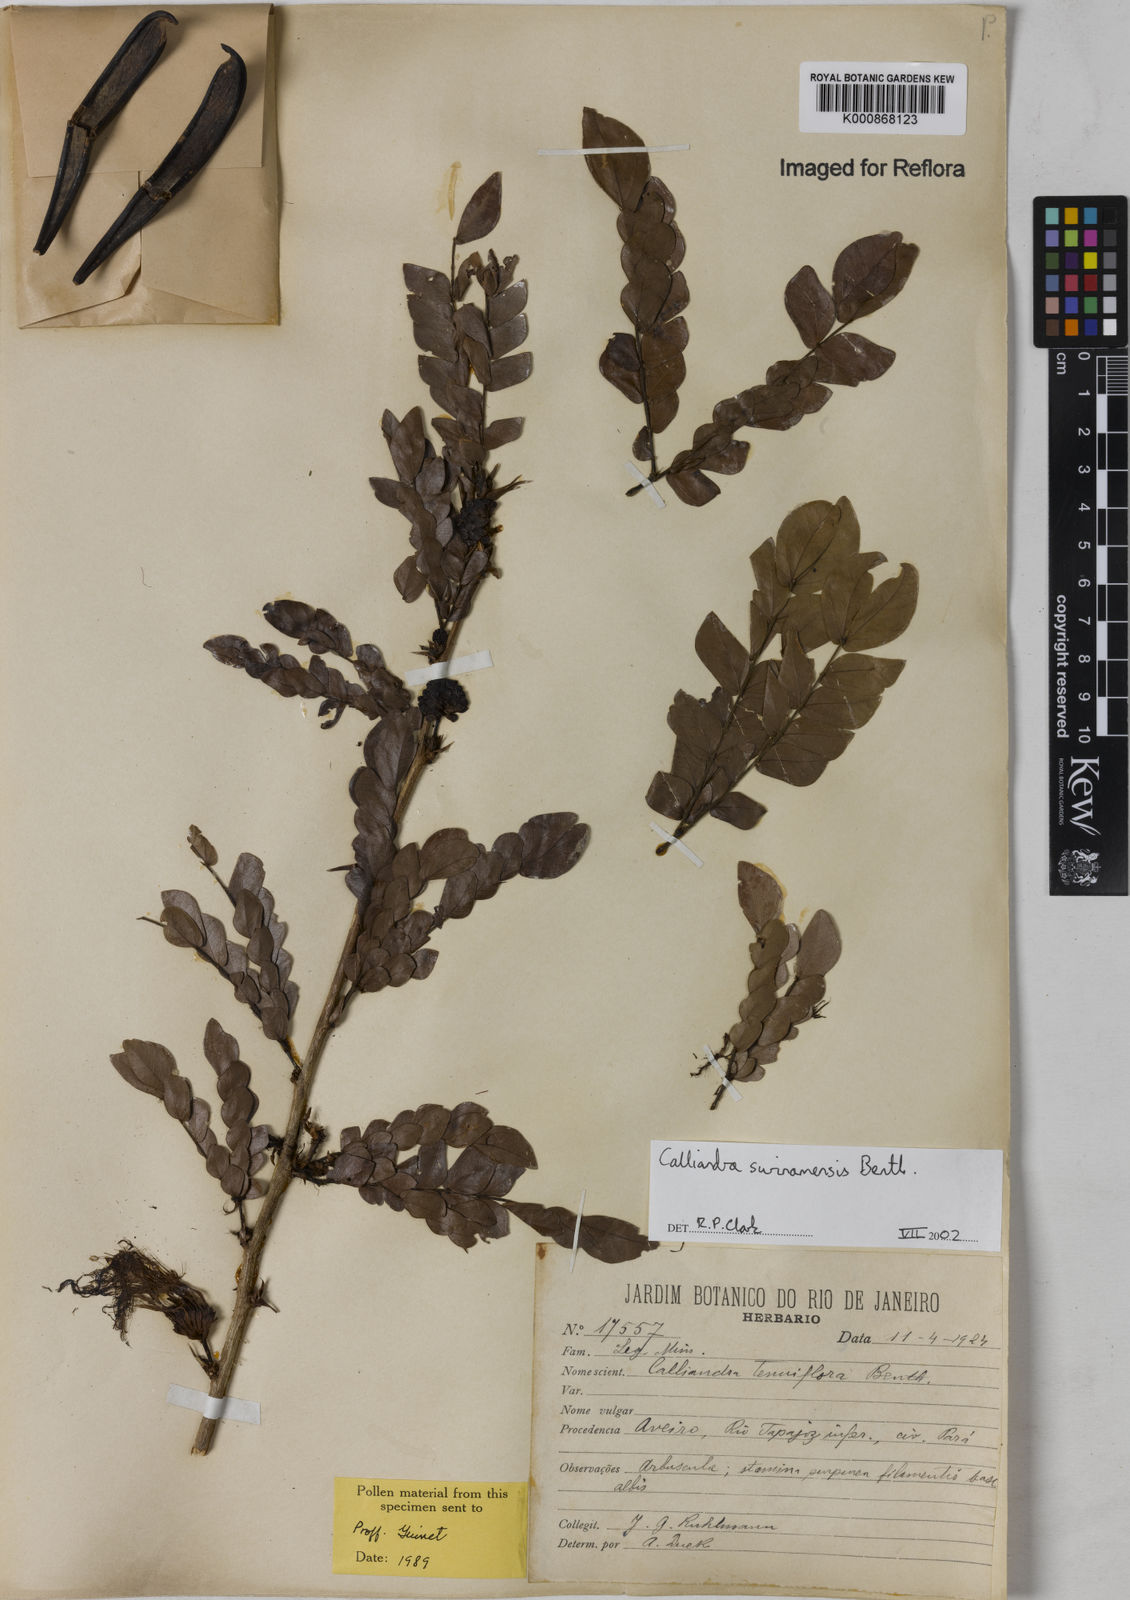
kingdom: Plantae
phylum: Tracheophyta
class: Magnoliopsida
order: Fabales
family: Fabaceae
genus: Calliandra
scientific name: Calliandra surinamensis
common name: Pink powder puff
